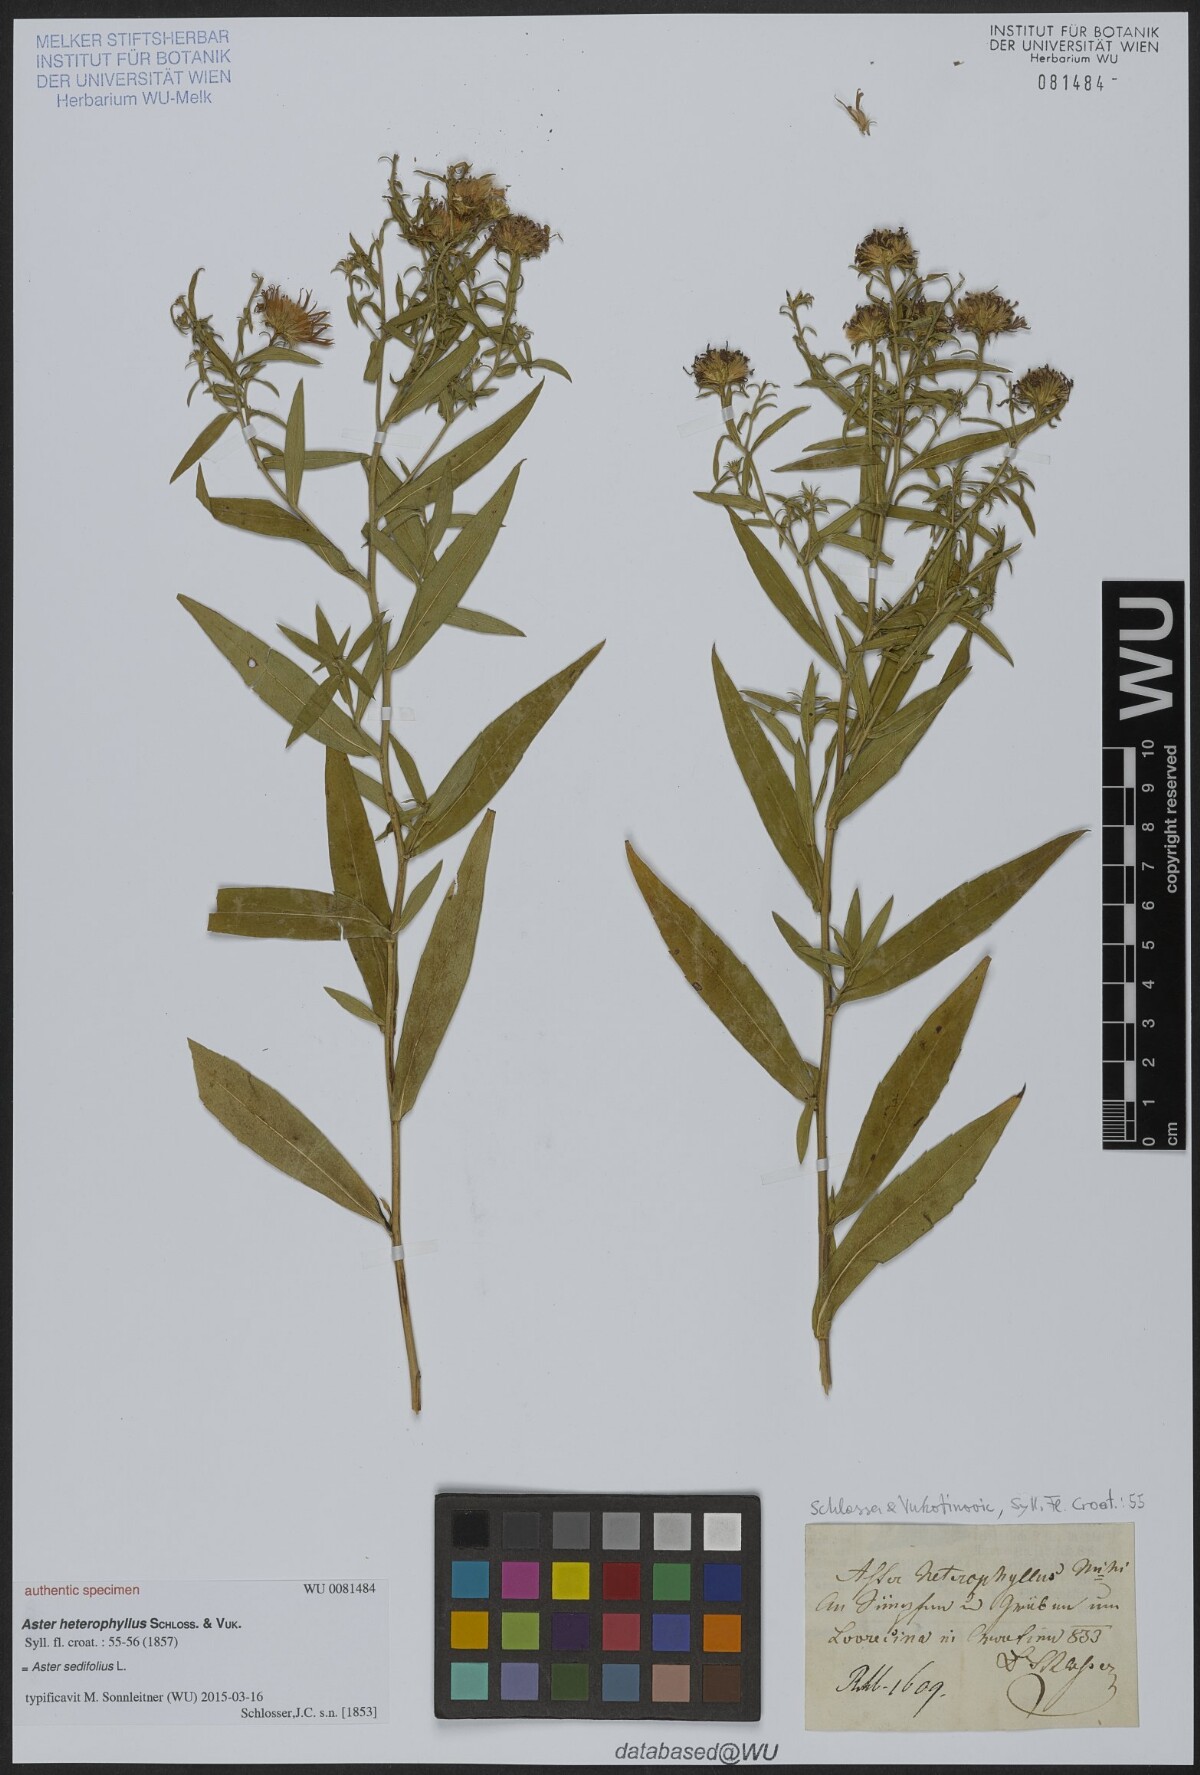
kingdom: Plantae
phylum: Tracheophyta
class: Magnoliopsida
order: Asterales
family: Asteraceae
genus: Aster
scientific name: Aster heterophyllus
